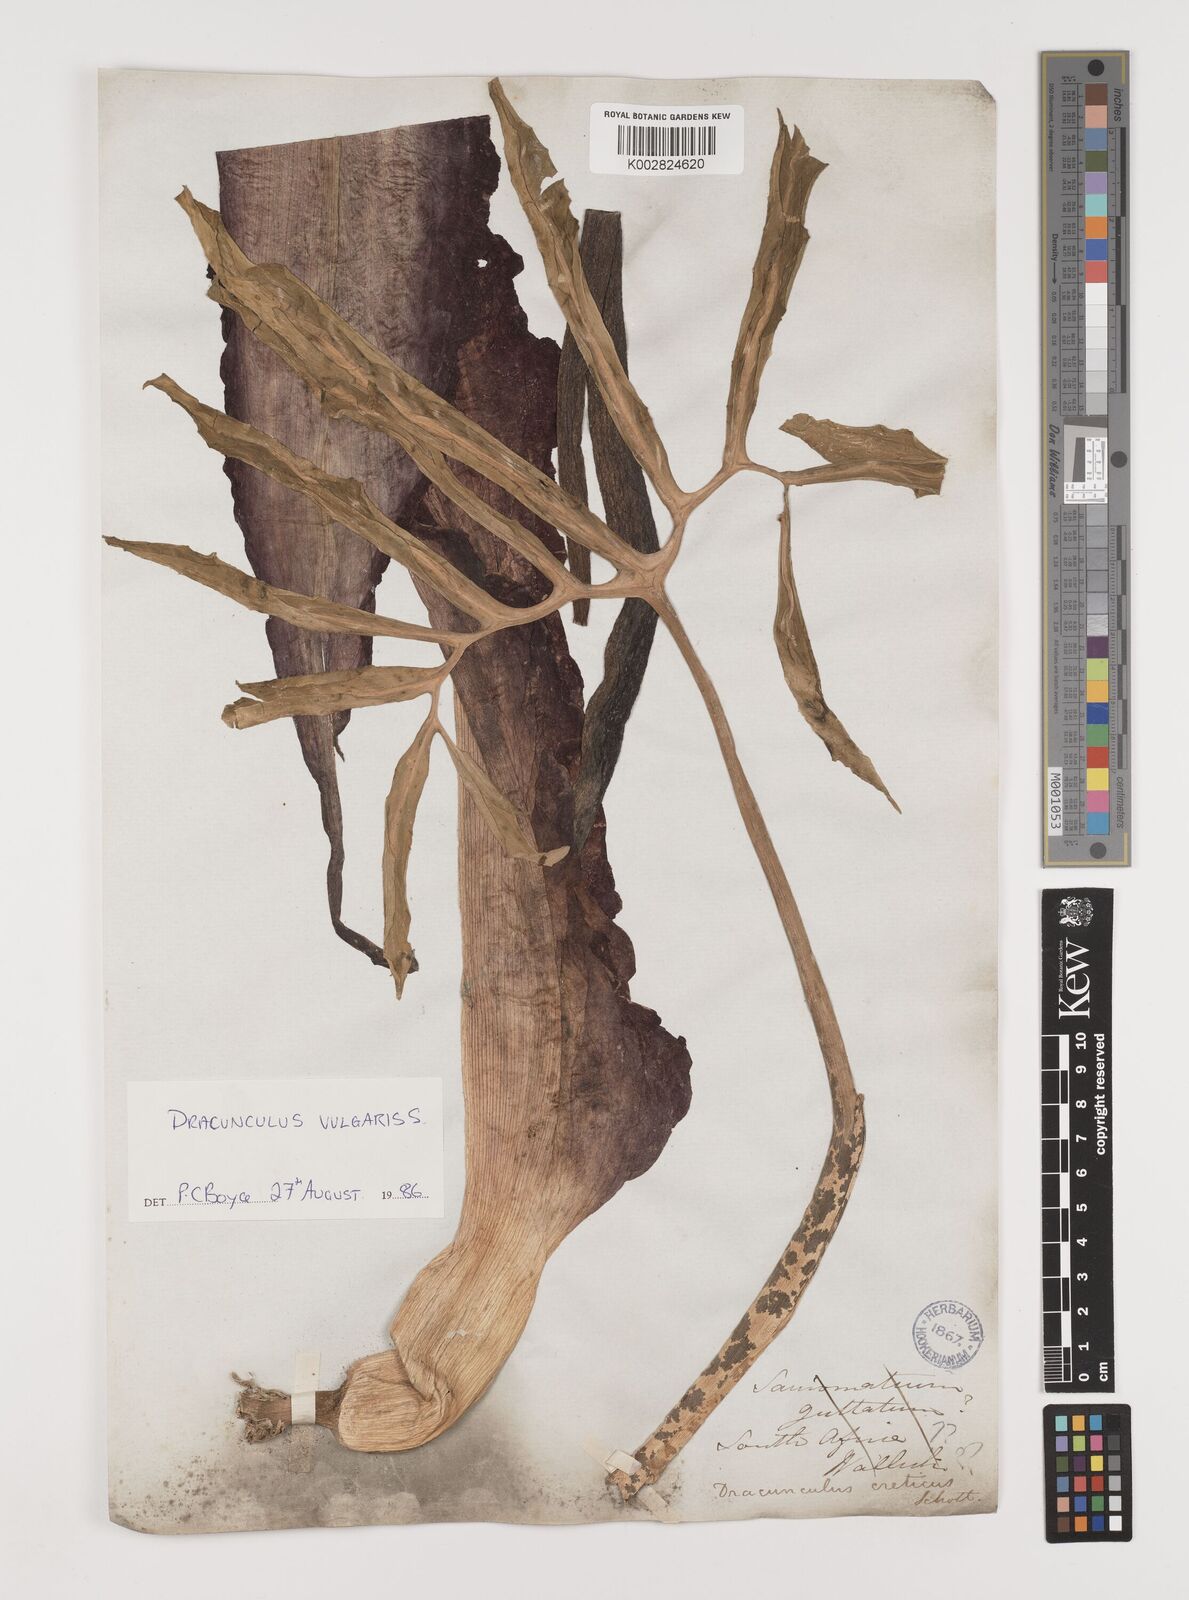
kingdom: Plantae
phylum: Tracheophyta
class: Liliopsida
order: Alismatales
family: Araceae
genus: Dracunculus
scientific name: Dracunculus vulgaris
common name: Dragon arum
